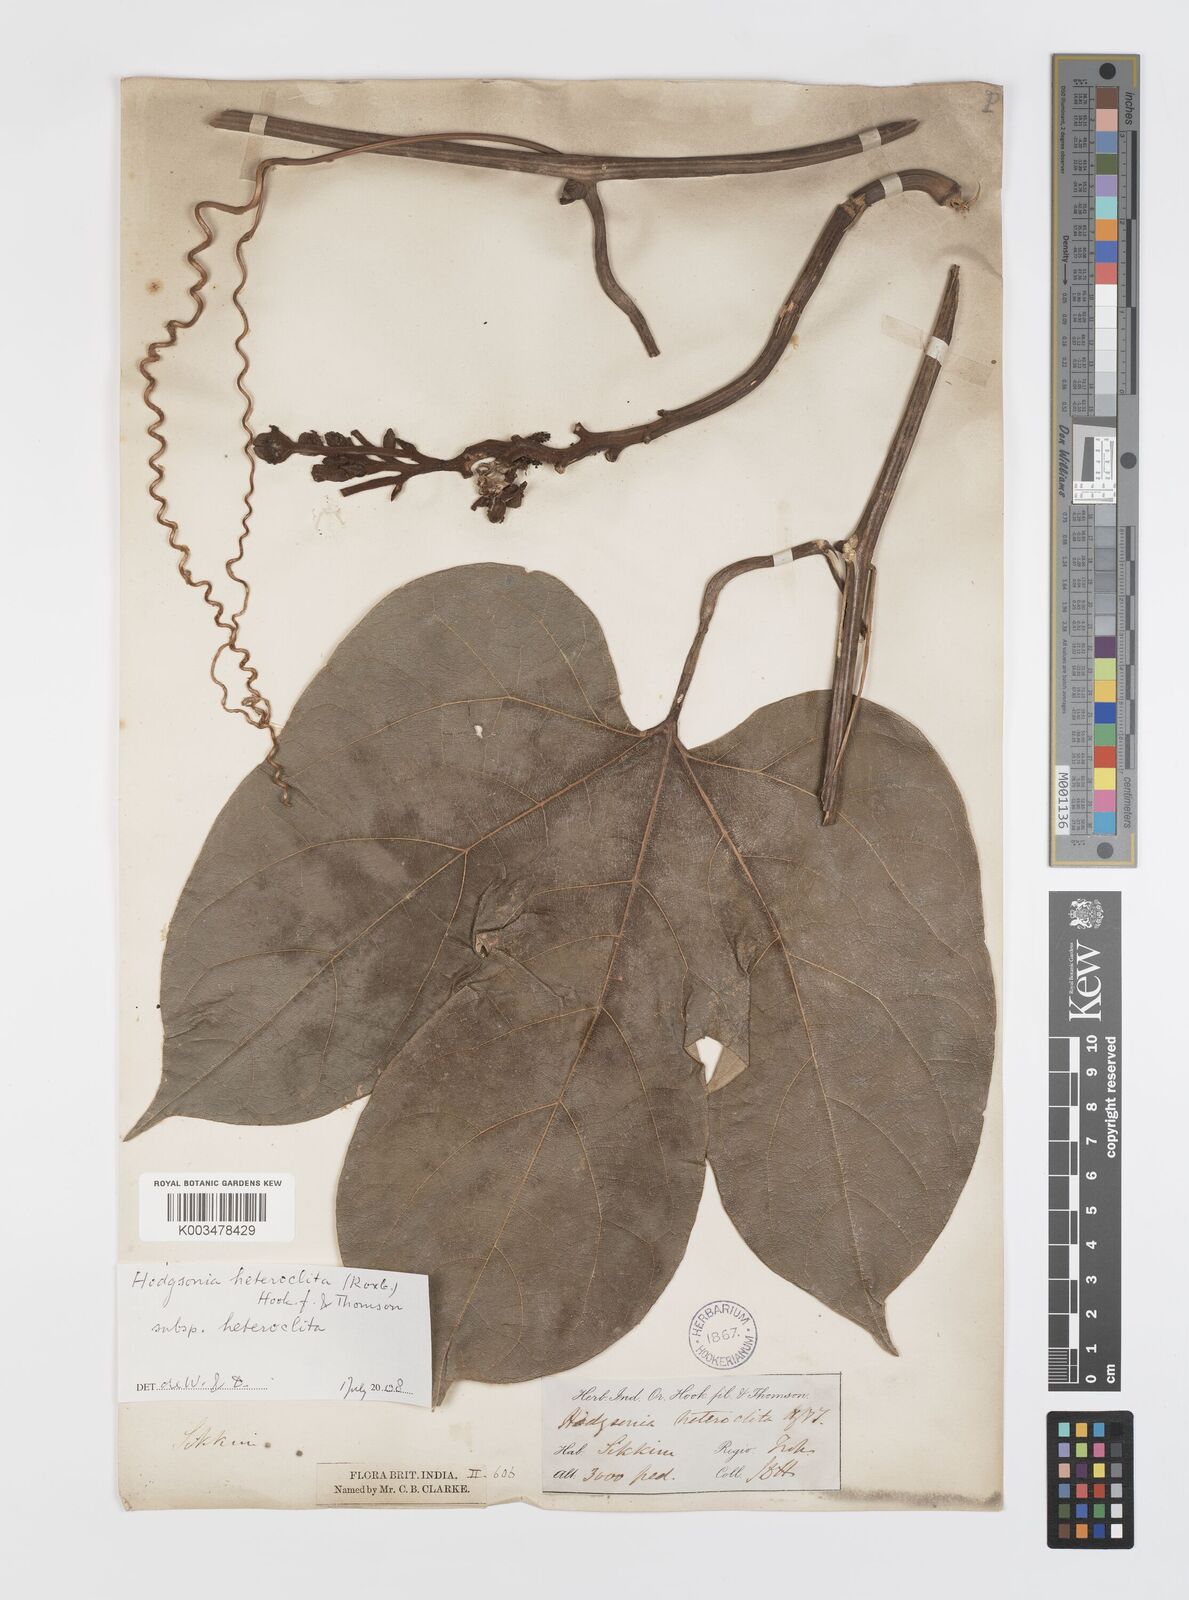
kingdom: Plantae
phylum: Tracheophyta
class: Magnoliopsida
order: Cucurbitales
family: Cucurbitaceae
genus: Hodgsonia
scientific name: Hodgsonia macrocarpa
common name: Chinese lardfruit
